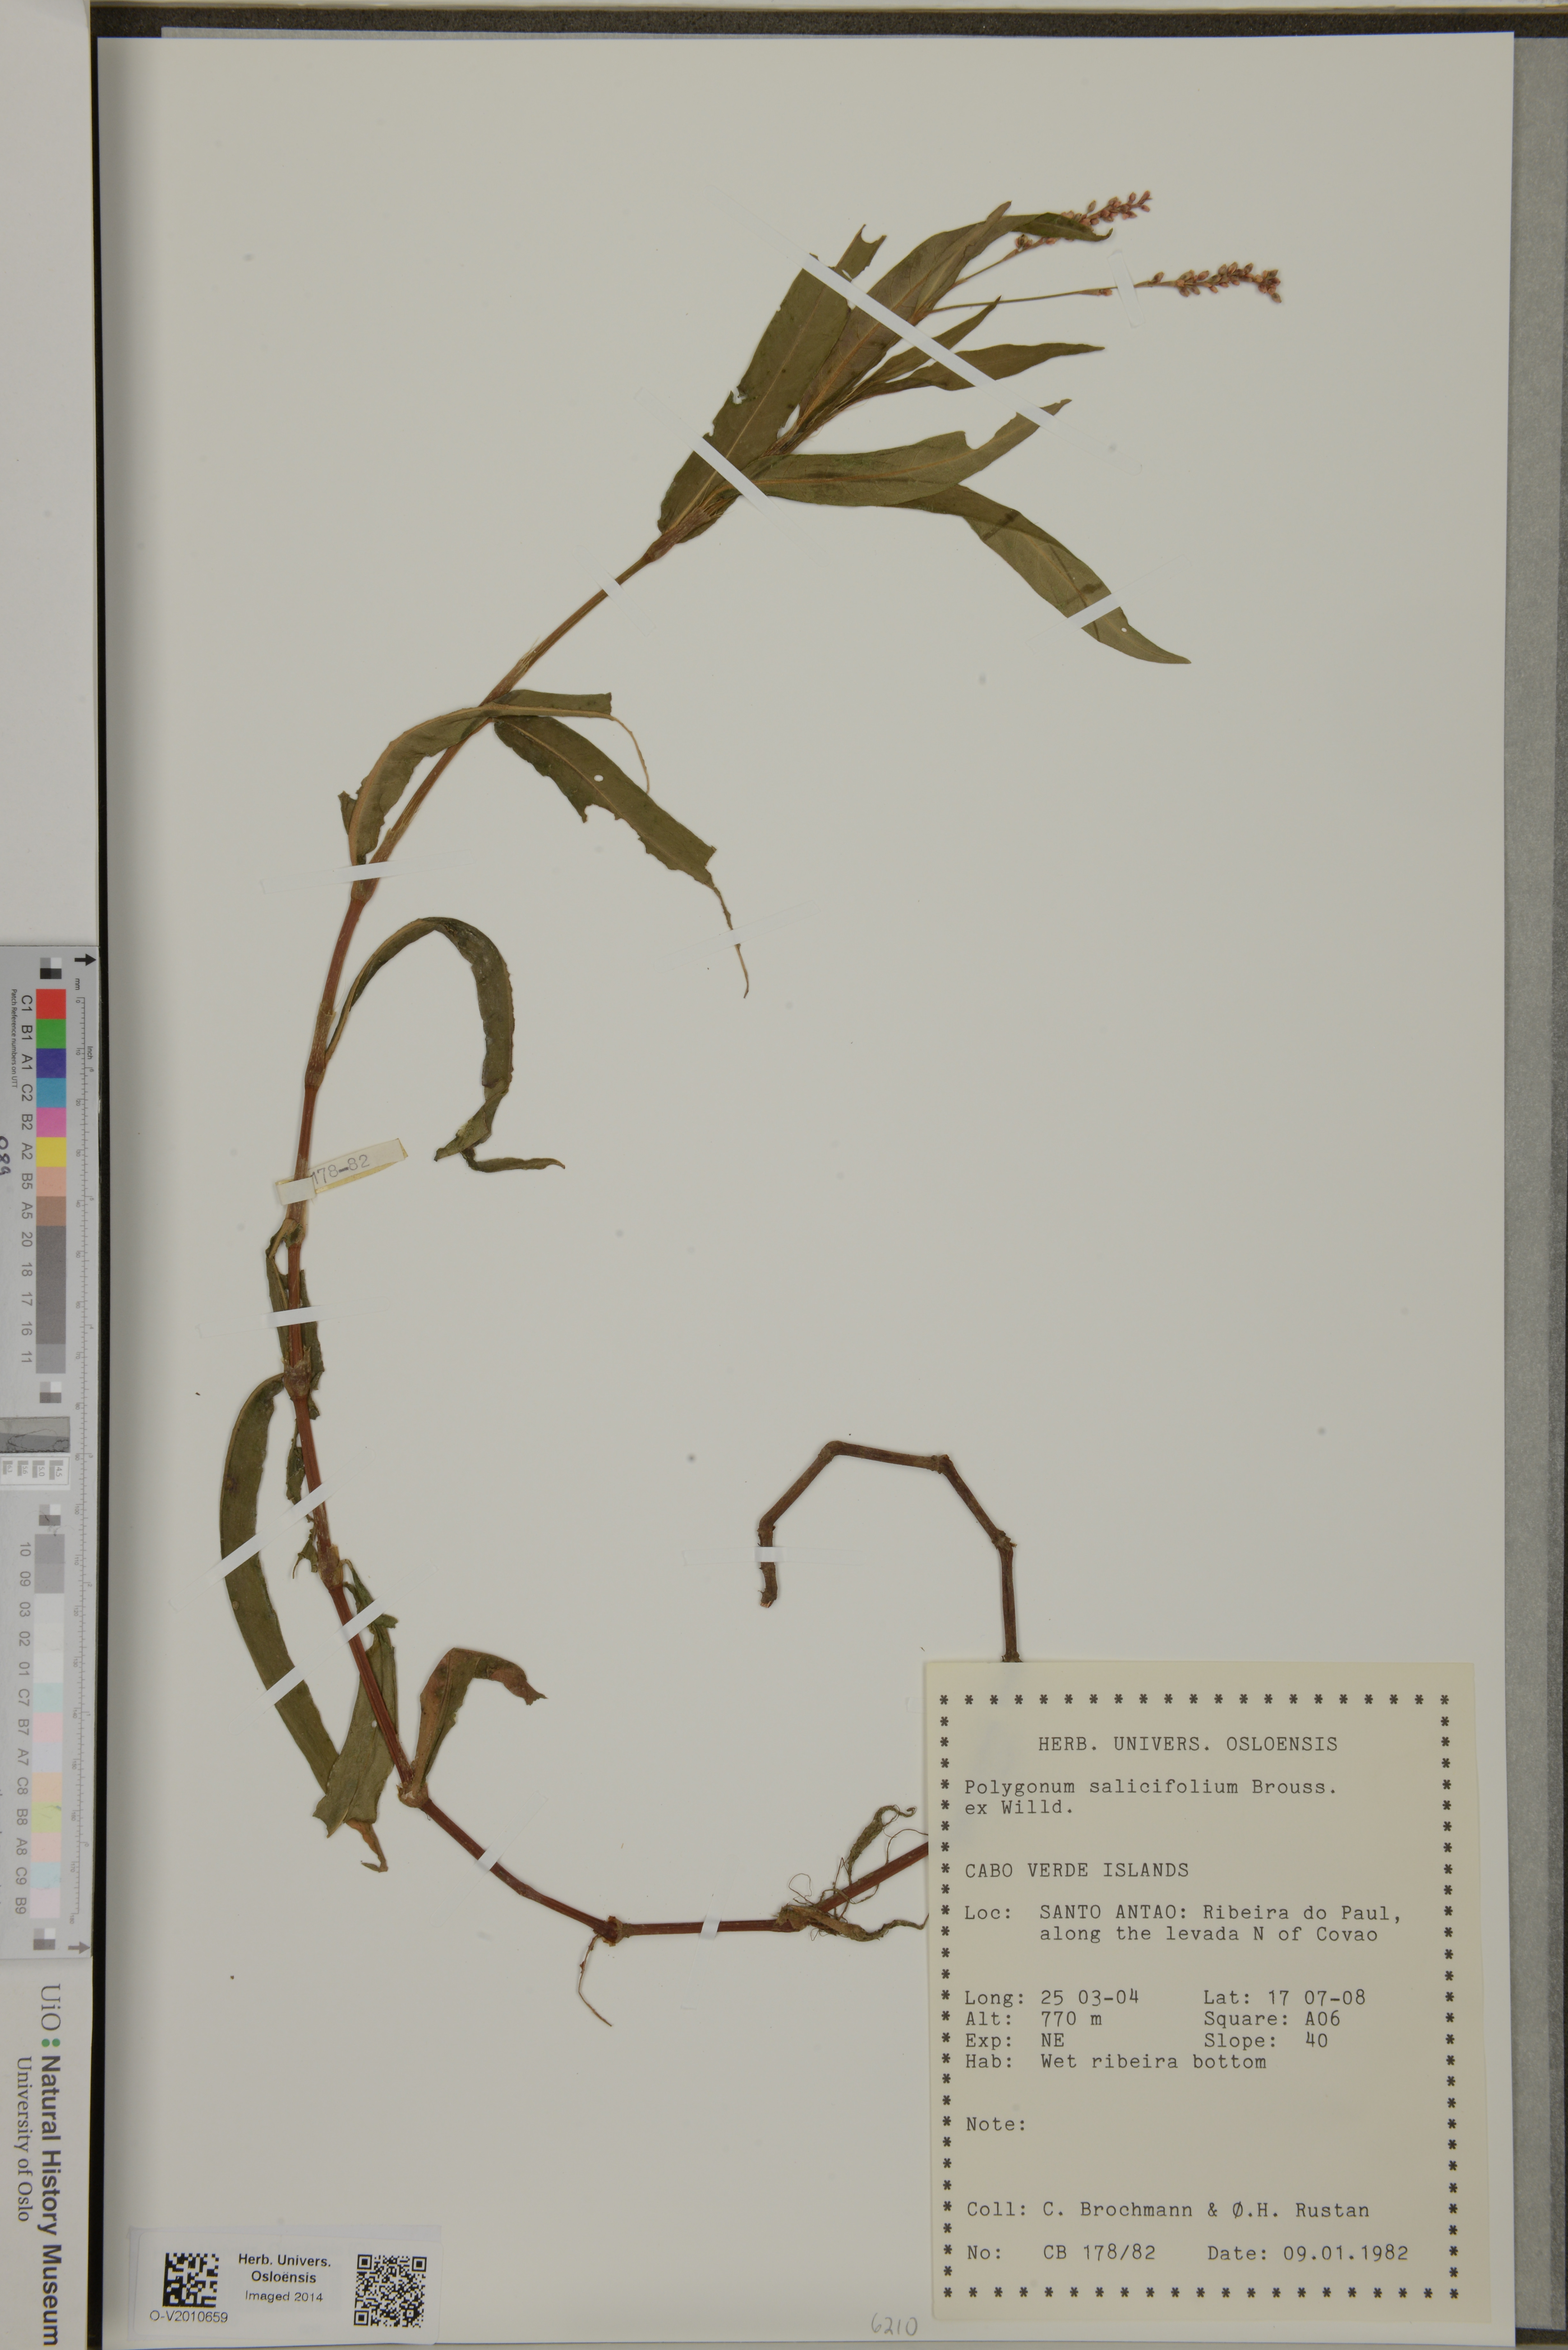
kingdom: Plantae
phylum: Tracheophyta
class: Magnoliopsida
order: Caryophyllales
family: Polygonaceae
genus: Persicaria
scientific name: Persicaria salicifolia
